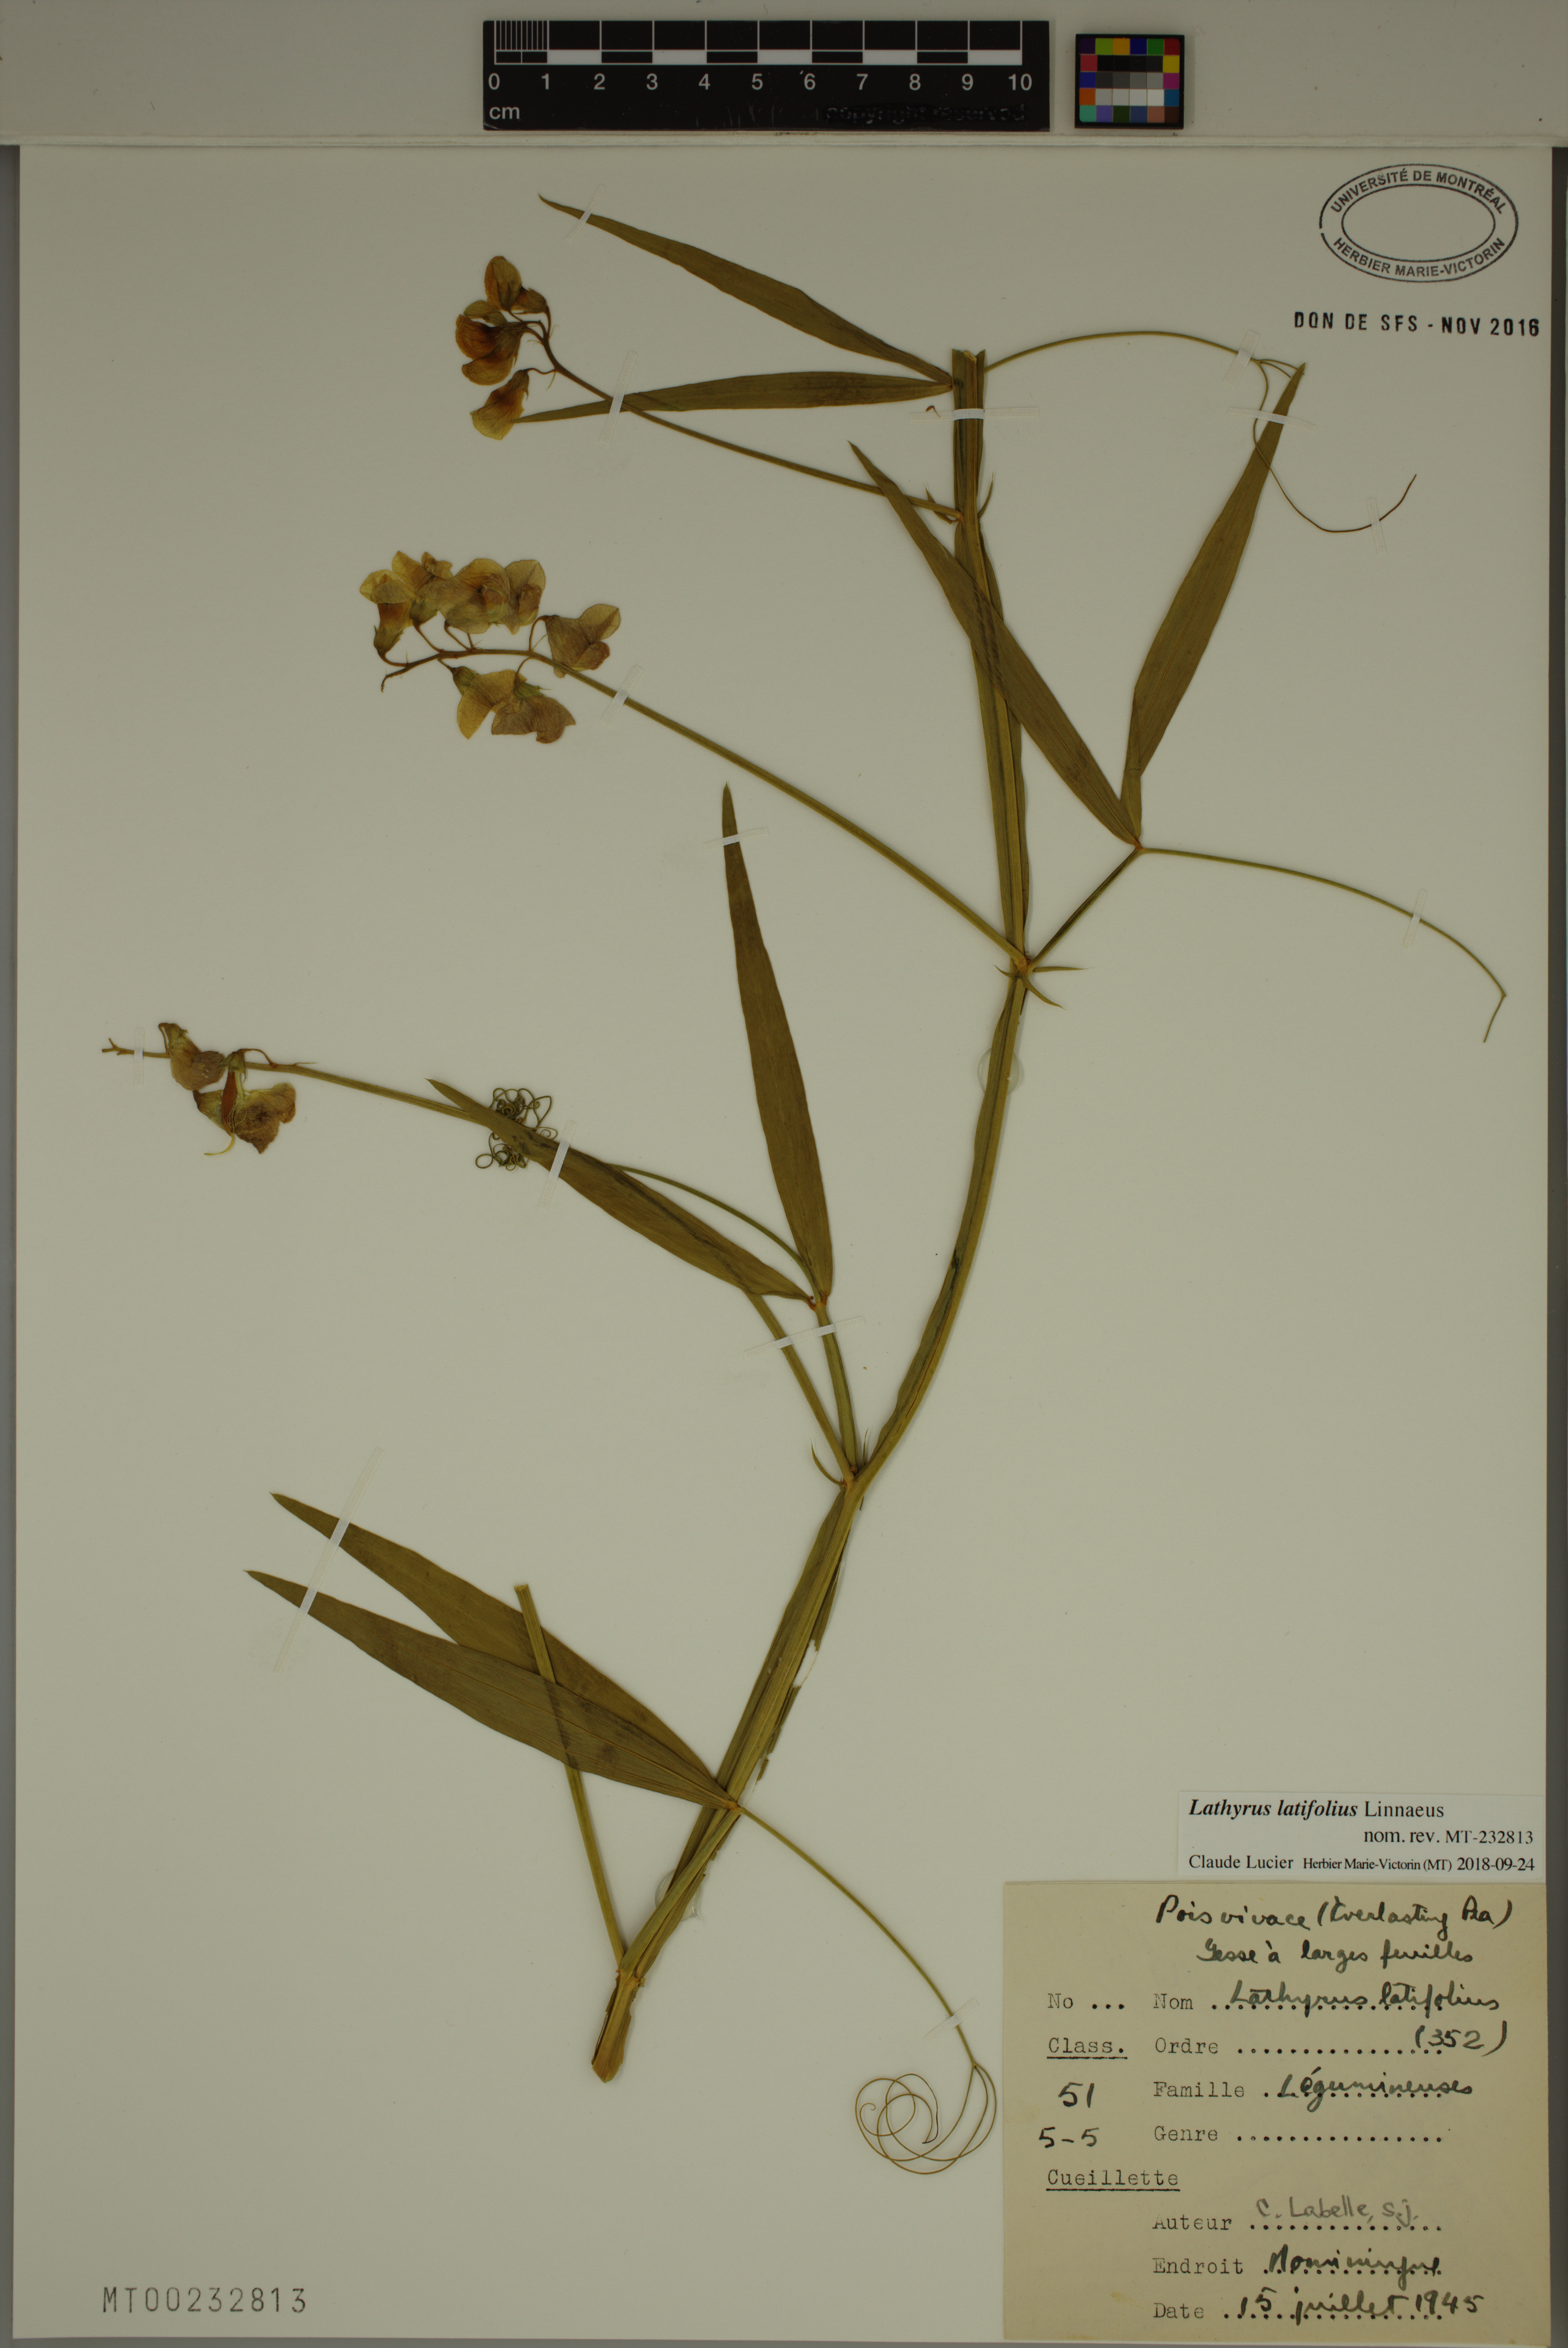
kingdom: Plantae
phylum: Tracheophyta
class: Magnoliopsida
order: Fabales
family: Fabaceae
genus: Lathyrus
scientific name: Lathyrus latifolius
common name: Perennial pea
